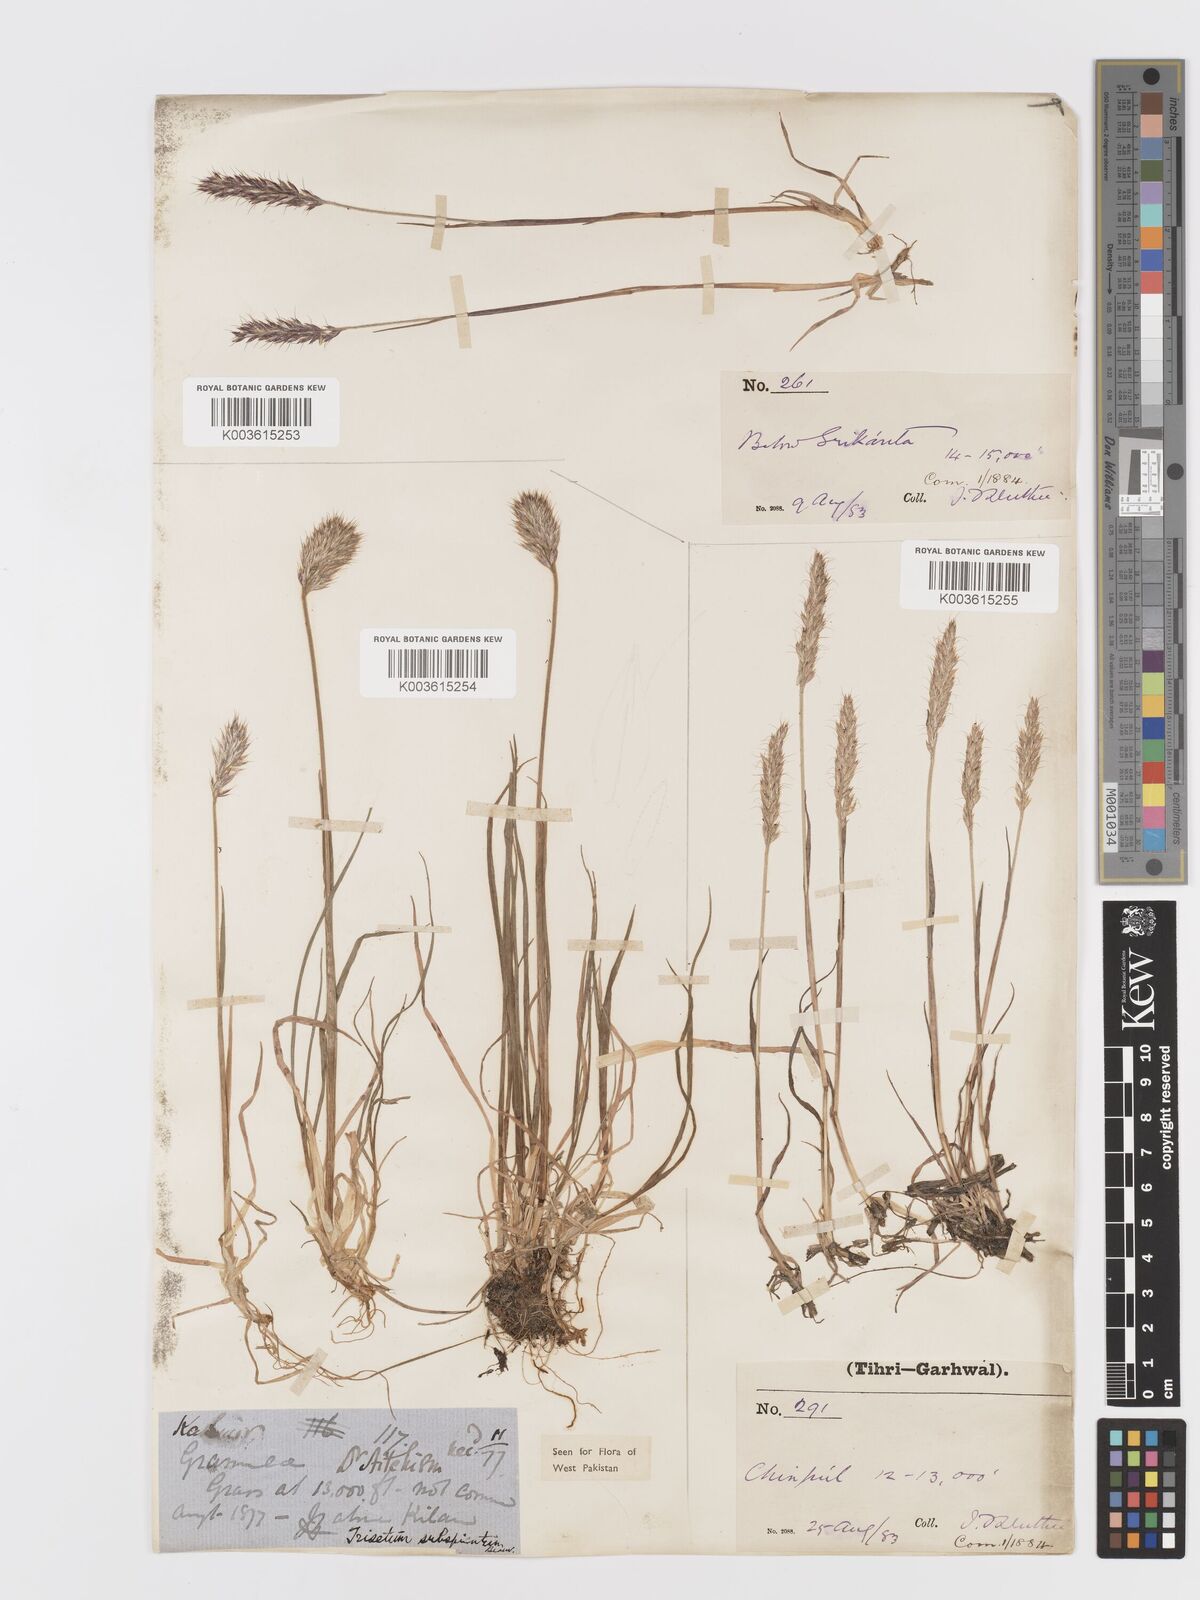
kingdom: Plantae
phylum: Tracheophyta
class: Liliopsida
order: Poales
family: Poaceae
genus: Koeleria
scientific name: Koeleria spicata
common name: Mountain trisetum
